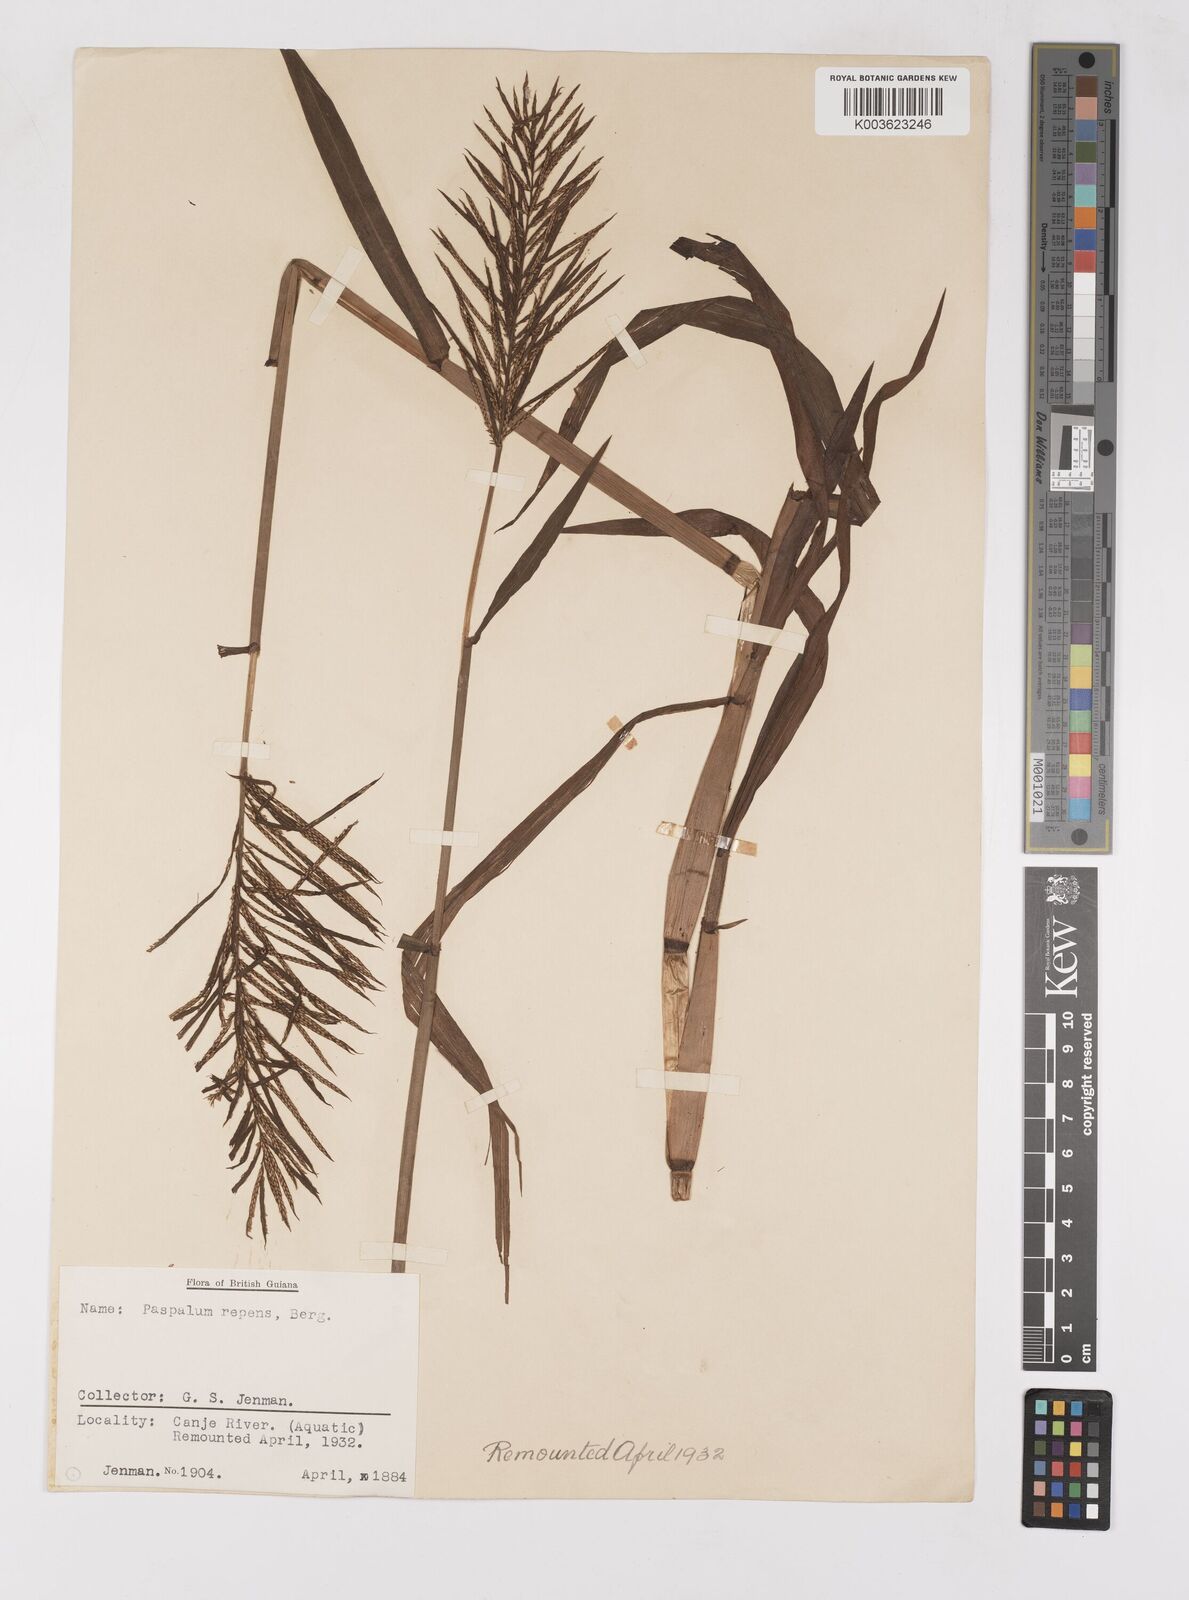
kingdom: Plantae
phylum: Tracheophyta
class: Liliopsida
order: Poales
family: Poaceae
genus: Paspalum
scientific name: Paspalum repens
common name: Water paspalum
